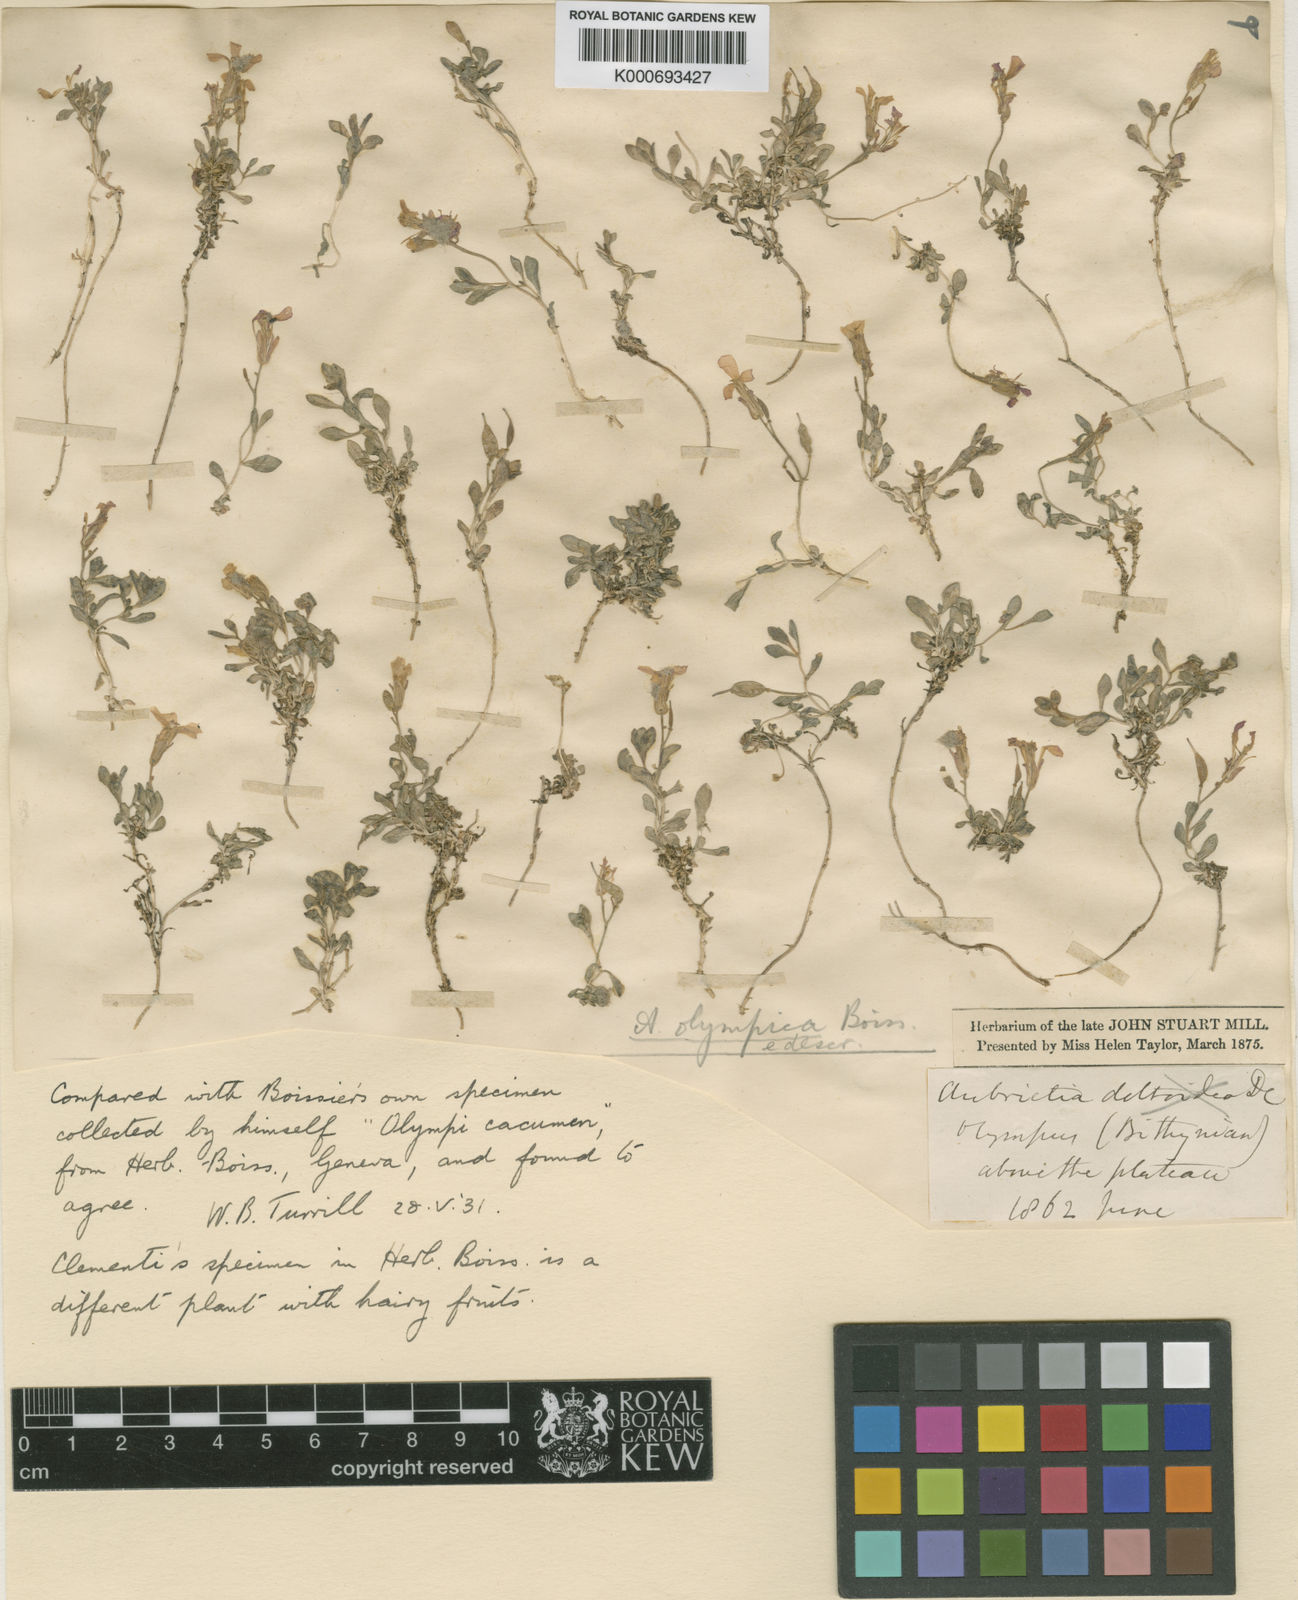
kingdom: Plantae
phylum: Tracheophyta
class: Magnoliopsida
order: Brassicales
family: Brassicaceae
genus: Aubrieta
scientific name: Aubrieta olympica
